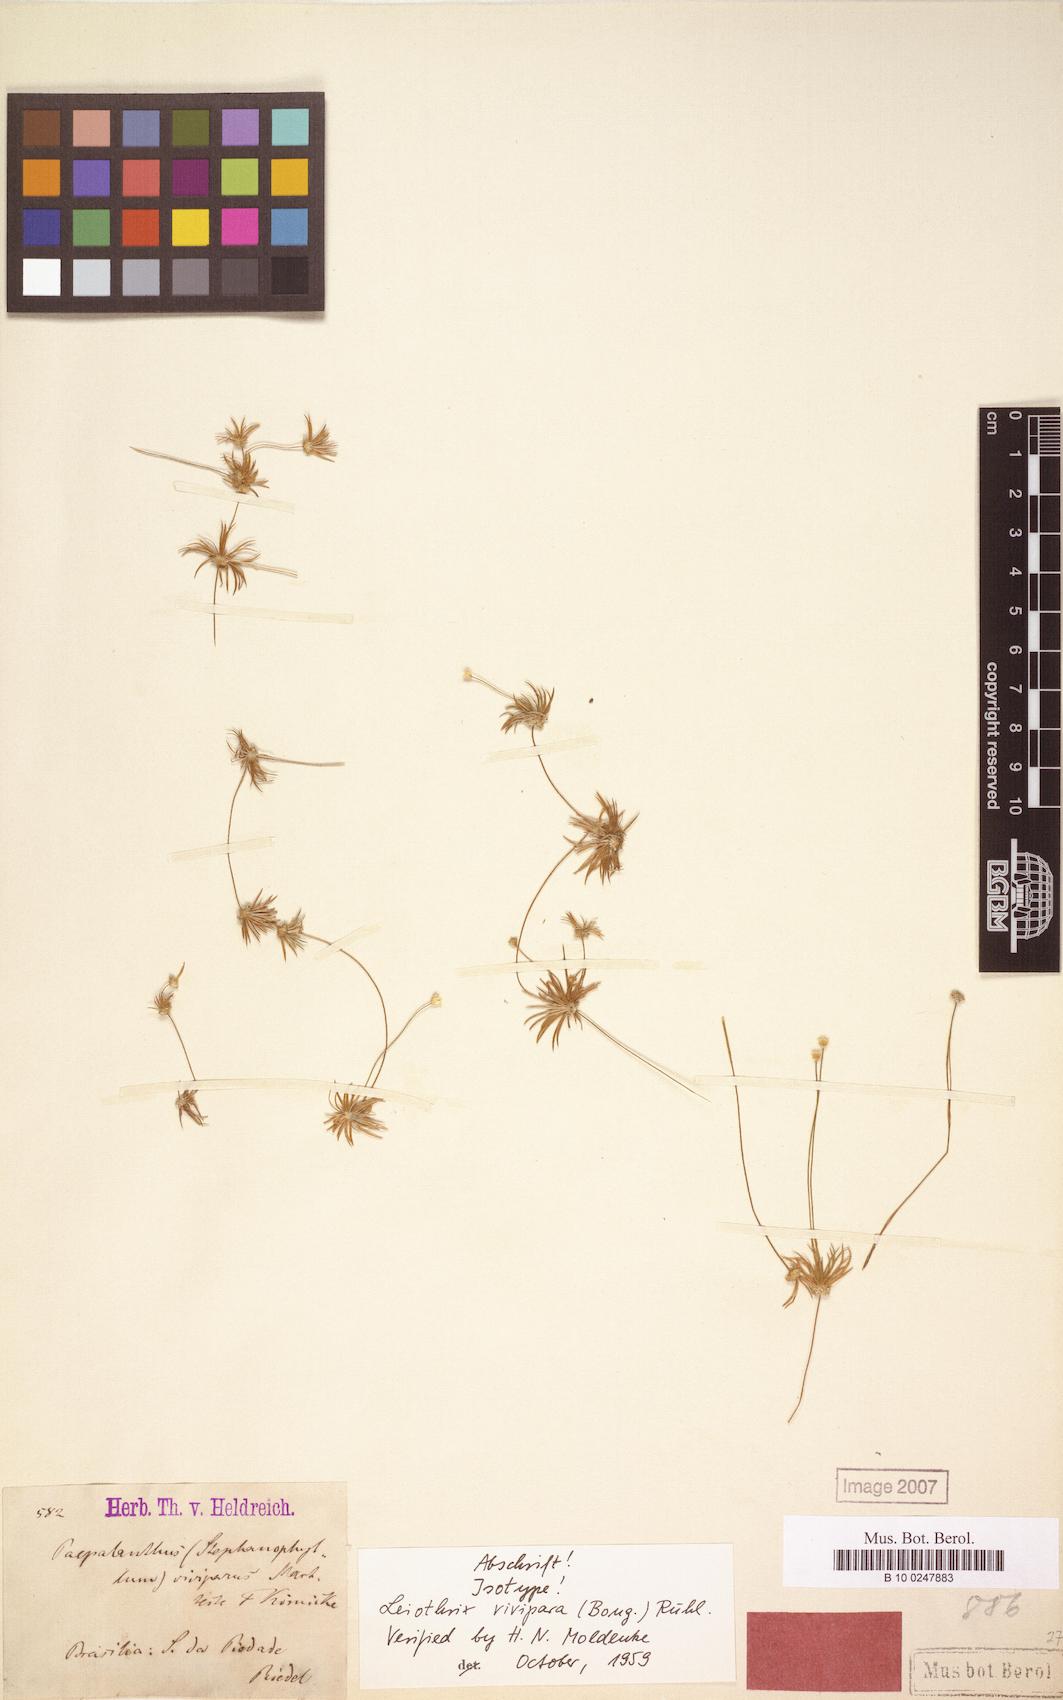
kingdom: Plantae
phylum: Tracheophyta
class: Liliopsida
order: Poales
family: Eriocaulaceae
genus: Leiothrix
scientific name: Leiothrix vivipara
